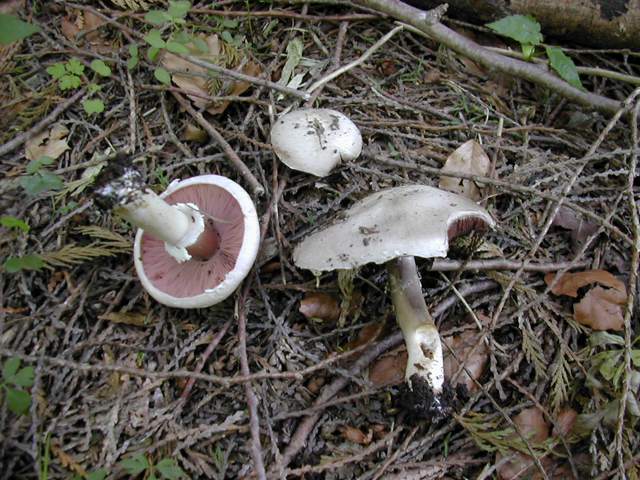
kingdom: Fungi
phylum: Basidiomycota
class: Agaricomycetes
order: Agaricales
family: Agaricaceae
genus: Agaricus
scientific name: Agaricus altipes
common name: sommer-champignon
